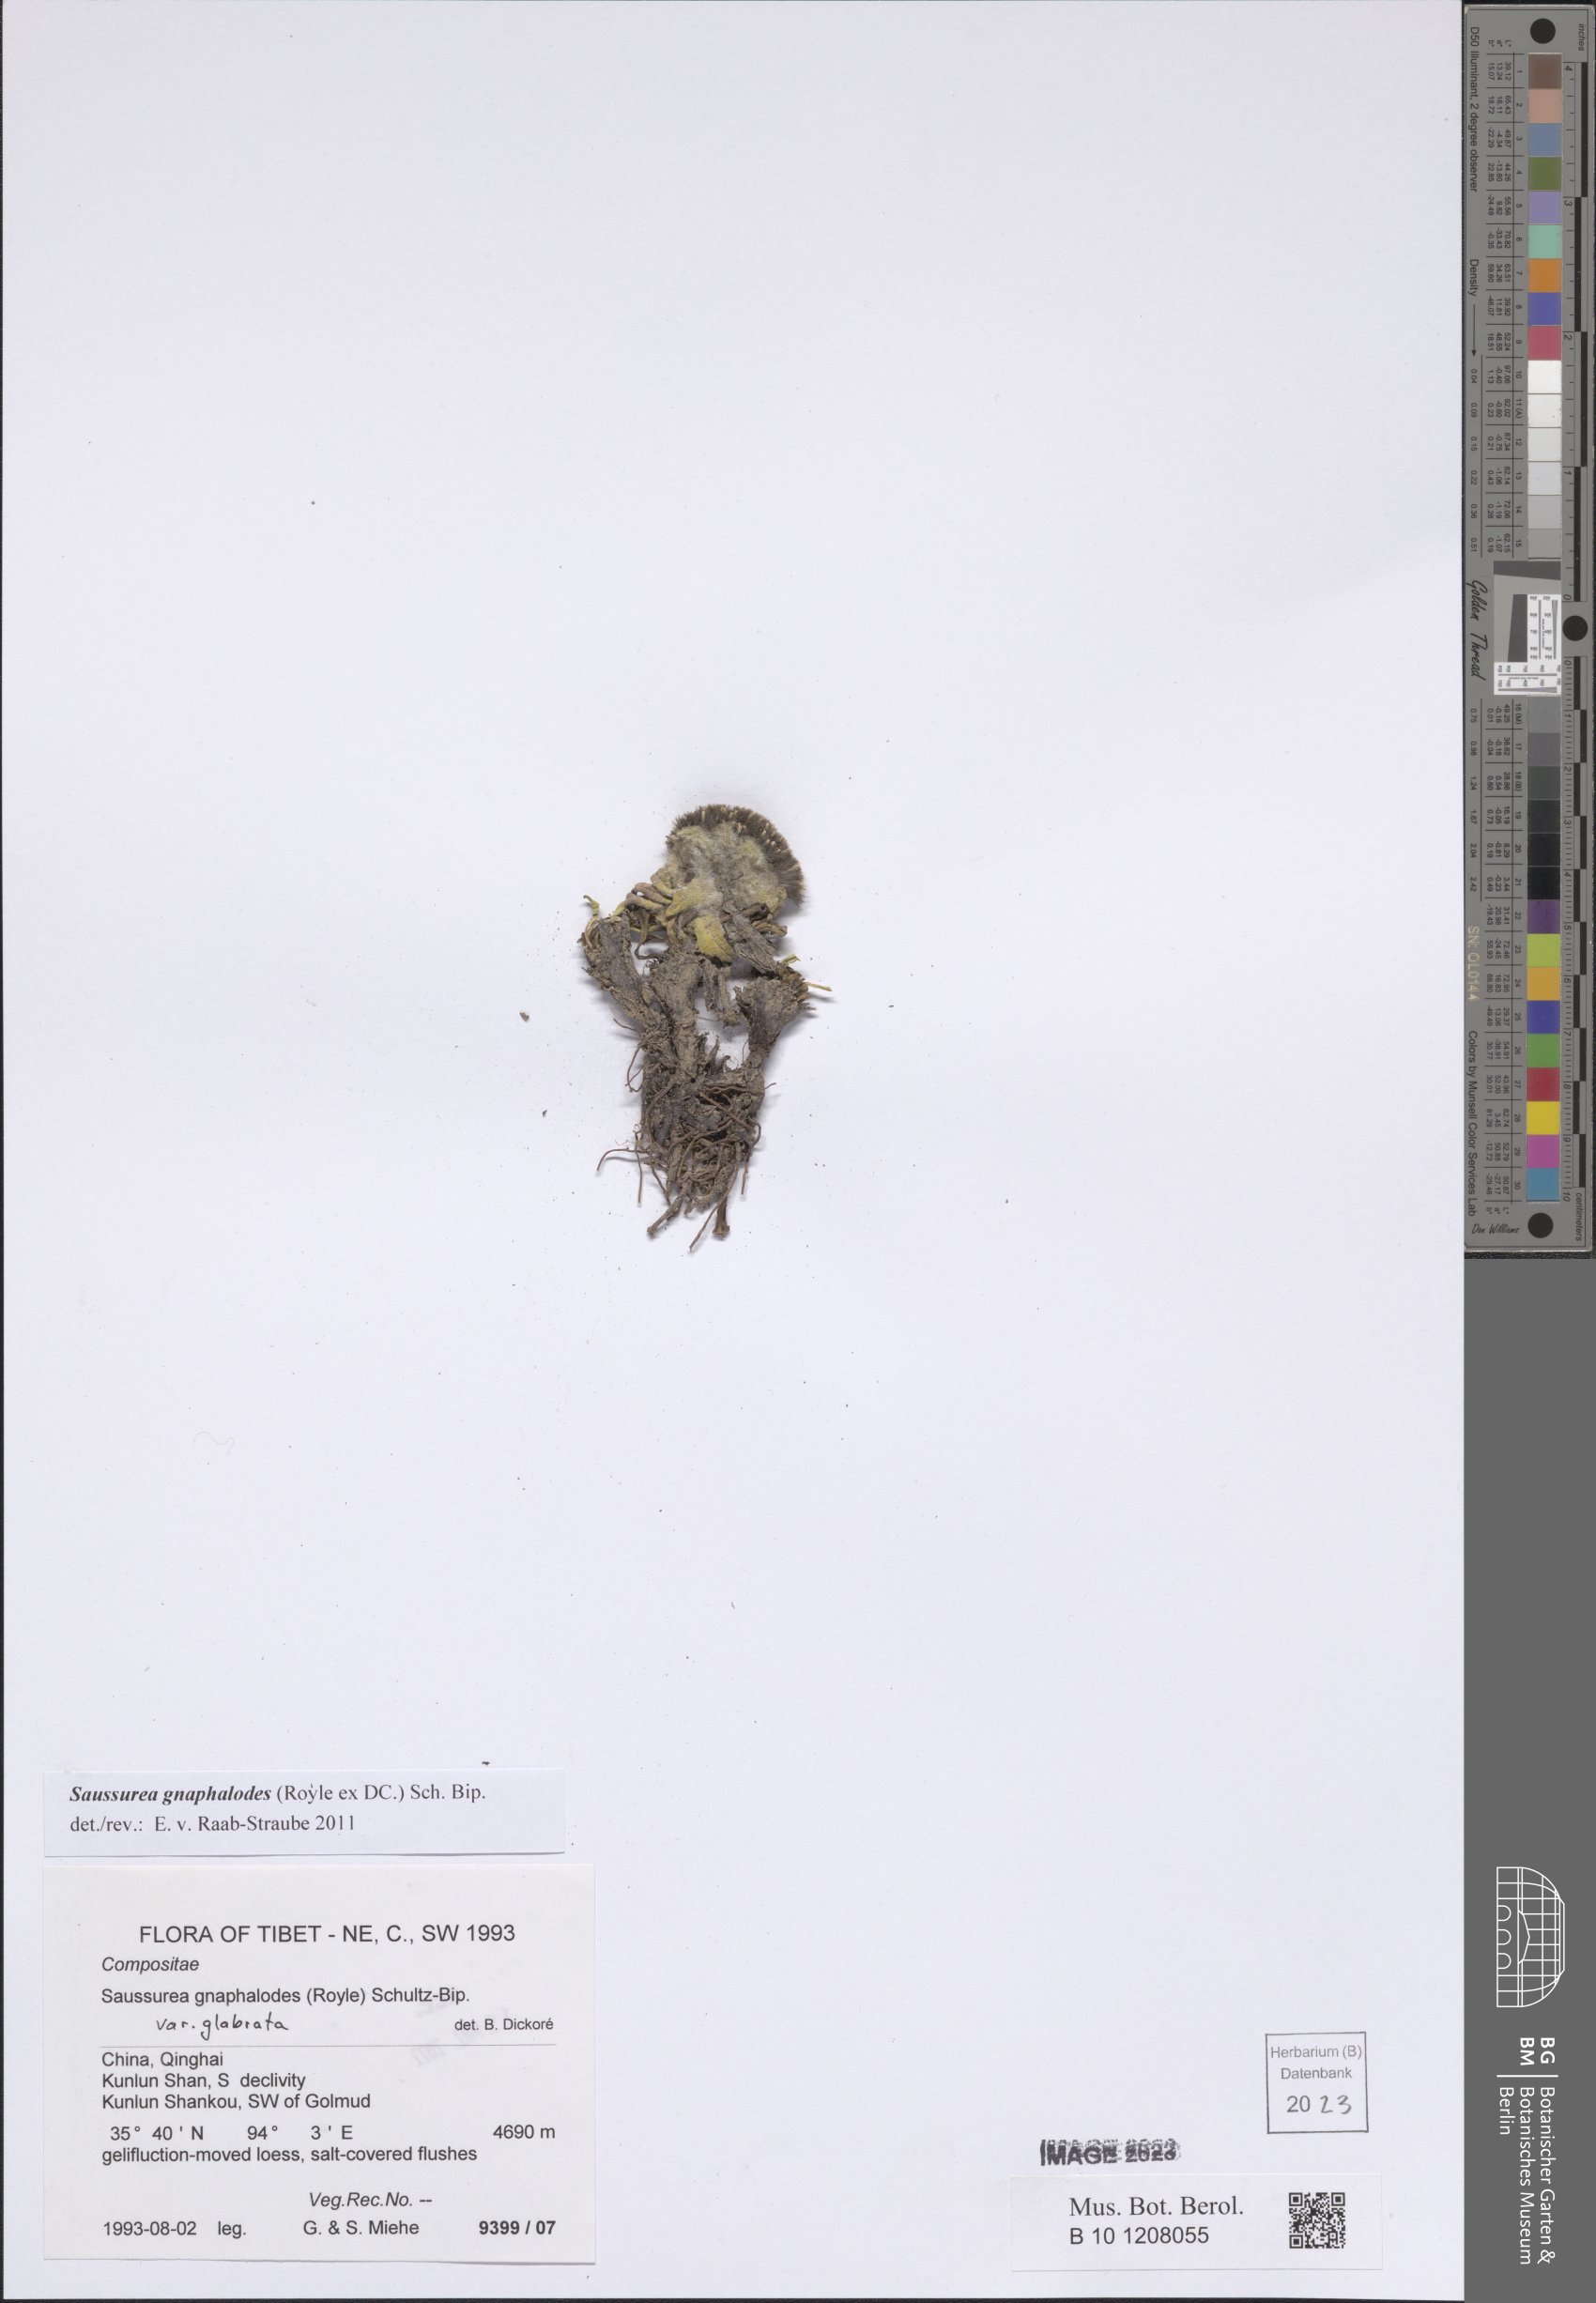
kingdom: Plantae
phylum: Tracheophyta
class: Magnoliopsida
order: Asterales
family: Asteraceae
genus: Saussurea
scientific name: Saussurea gnaphalodes
